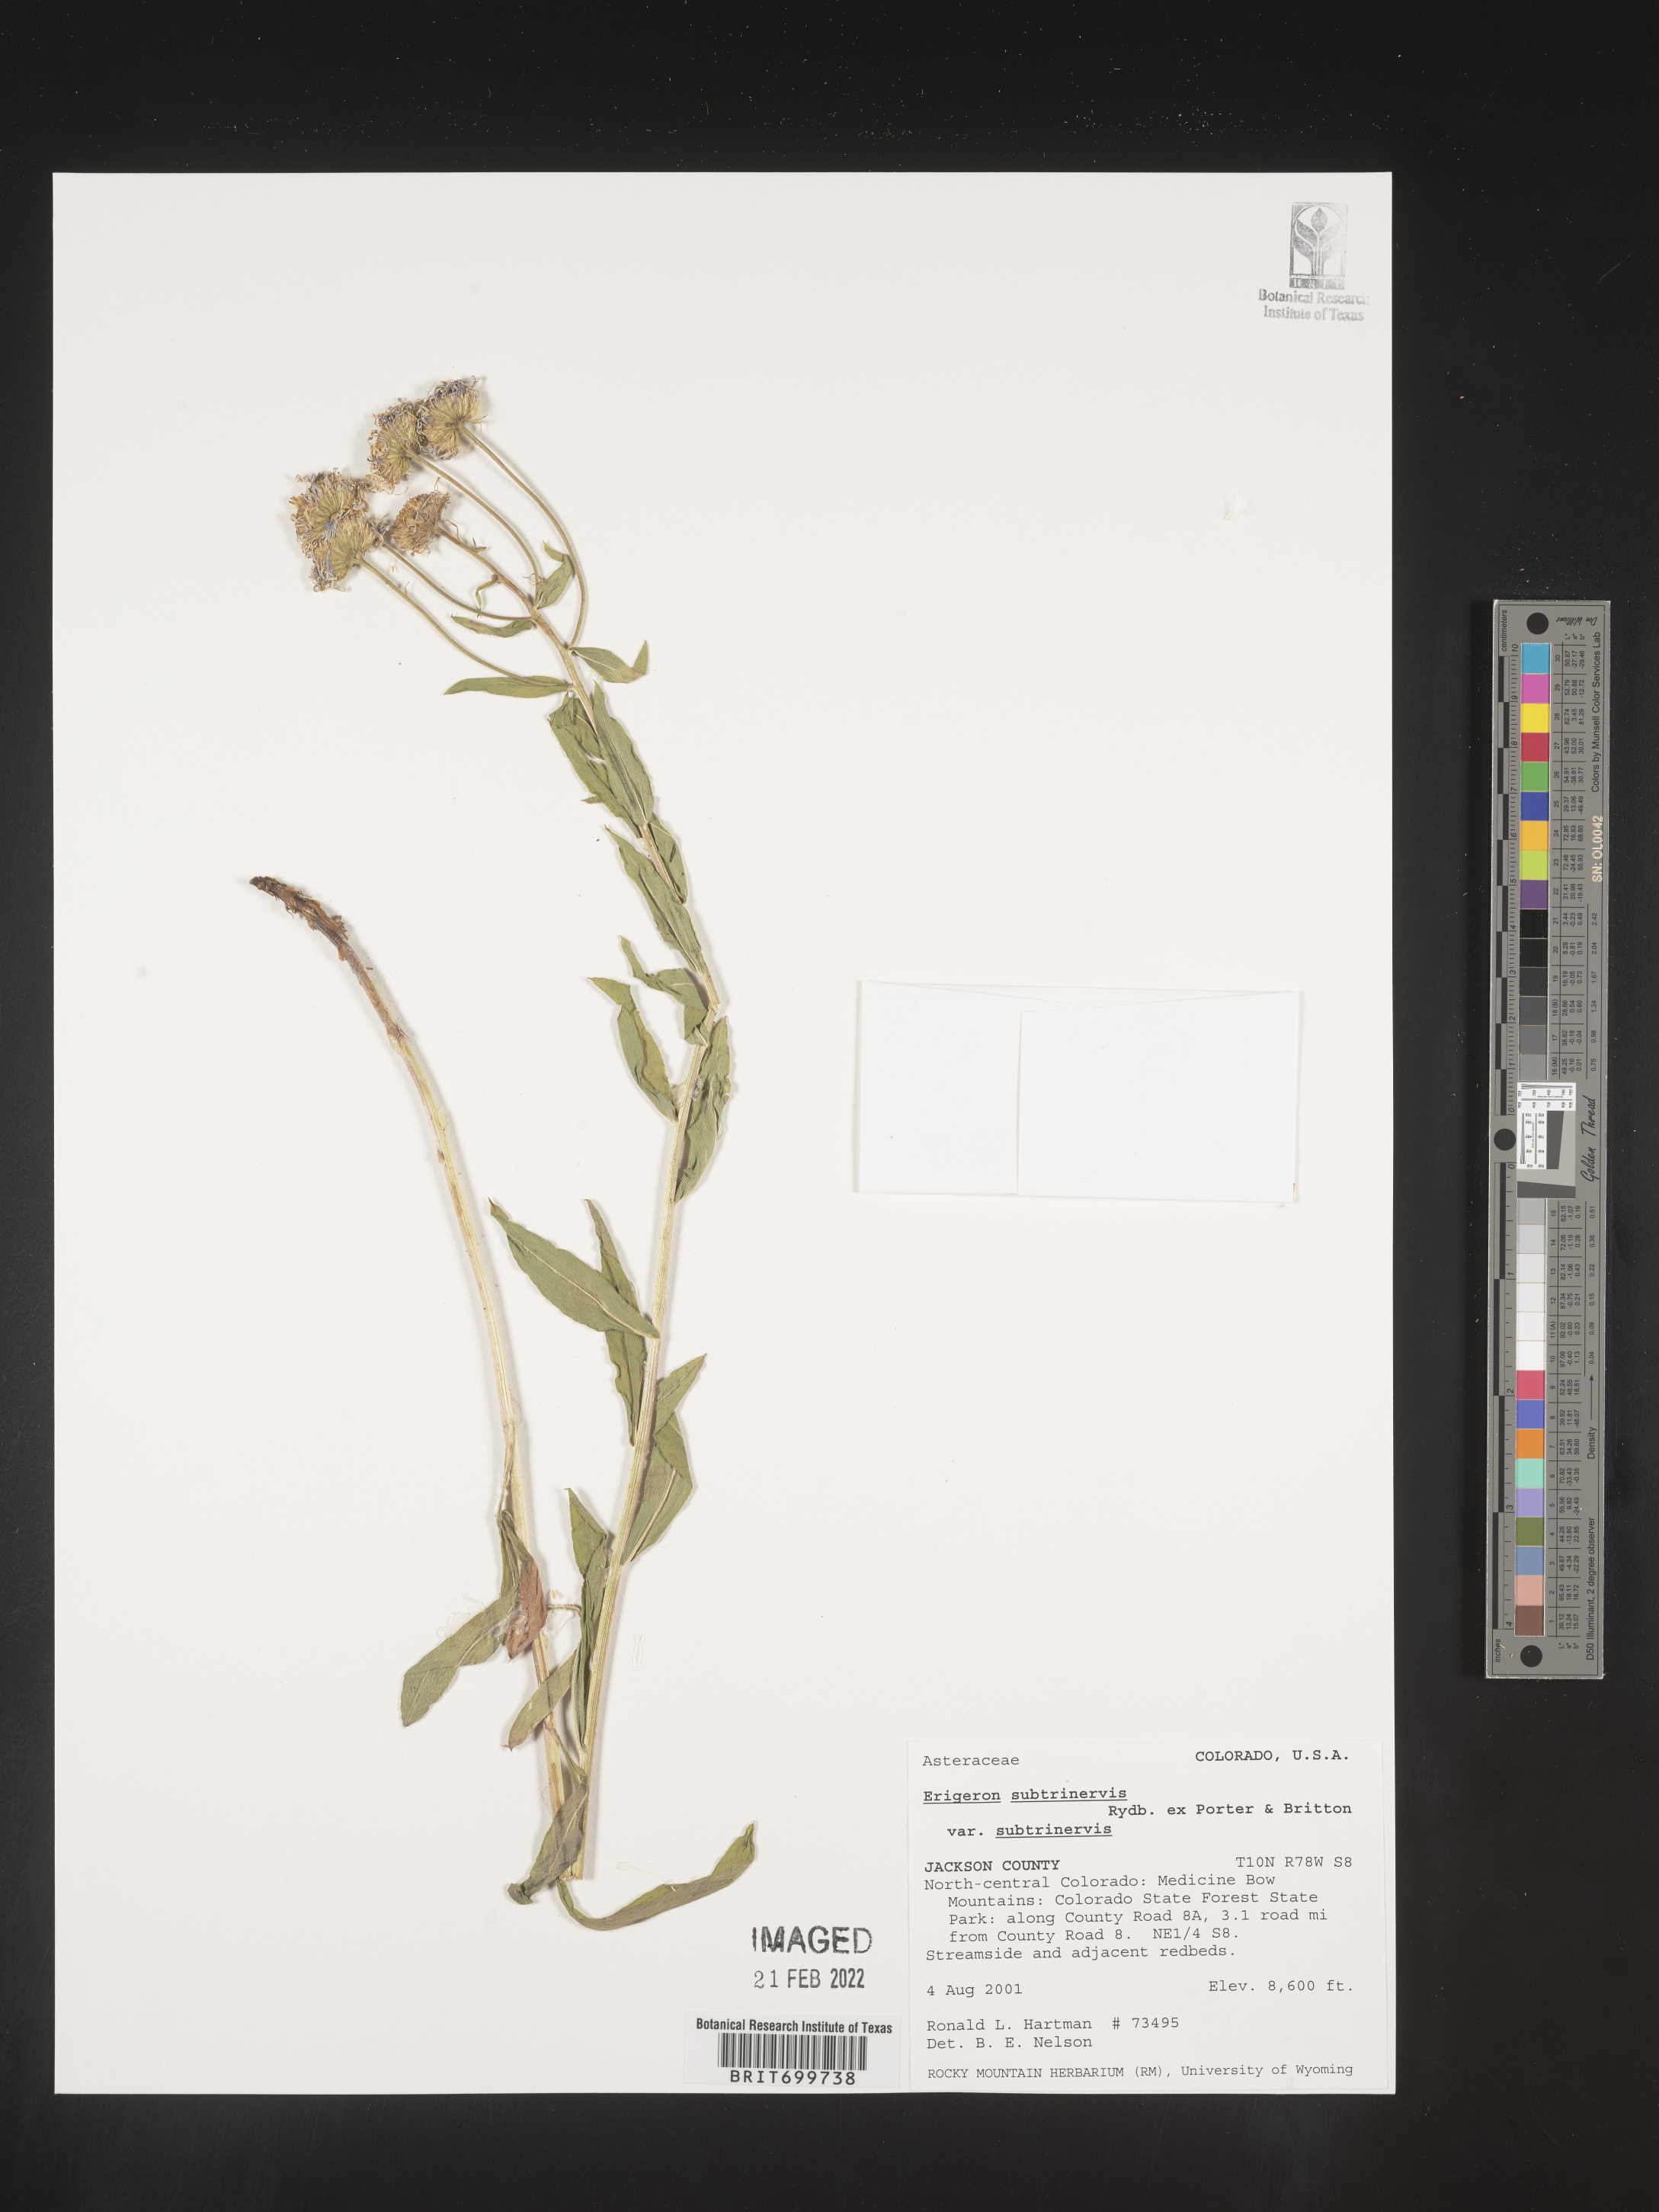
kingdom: Plantae
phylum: Tracheophyta
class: Magnoliopsida
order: Asterales
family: Asteraceae
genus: Erigeron
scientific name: Erigeron subtrinervis
